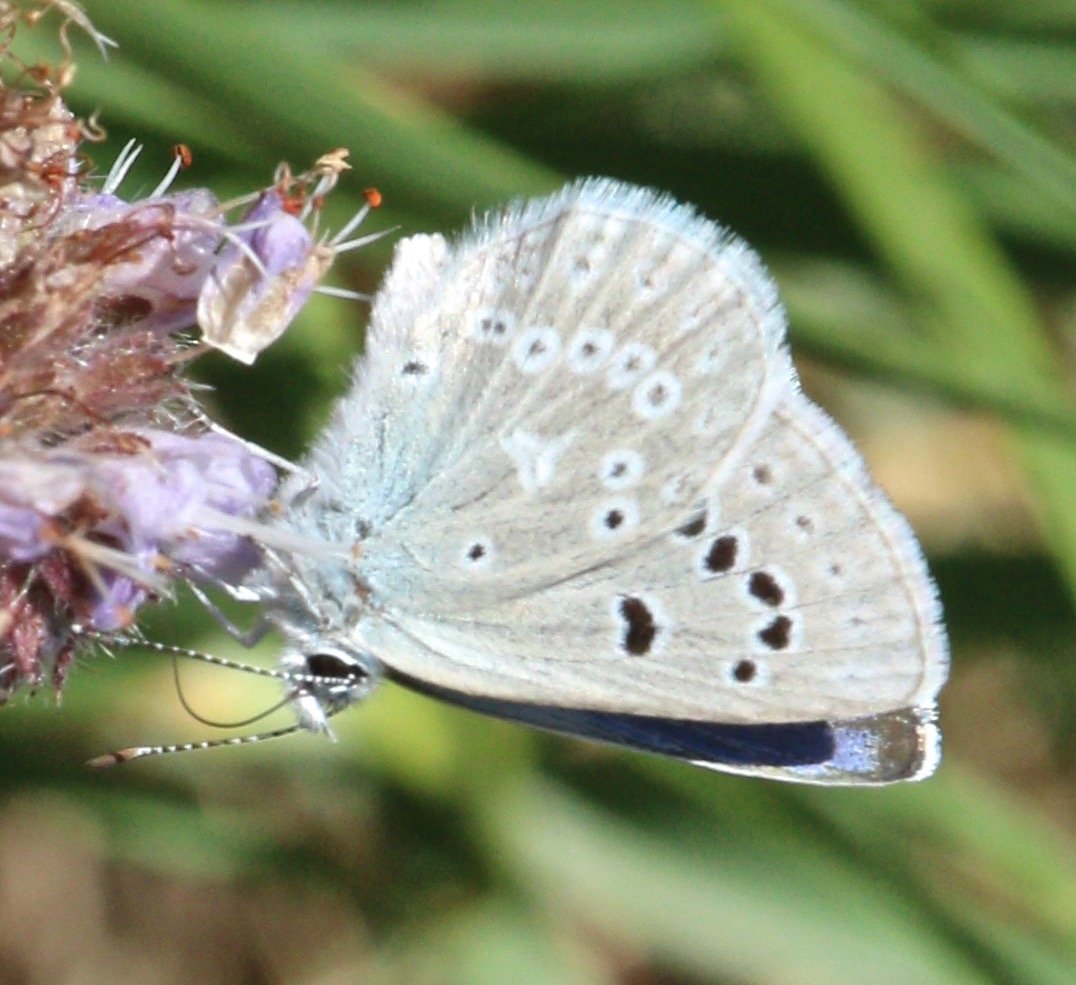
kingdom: Animalia
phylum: Arthropoda
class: Insecta
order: Lepidoptera
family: Lycaenidae
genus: Icaricia
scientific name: Icaricia icarioides
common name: Boisduval's Blue
